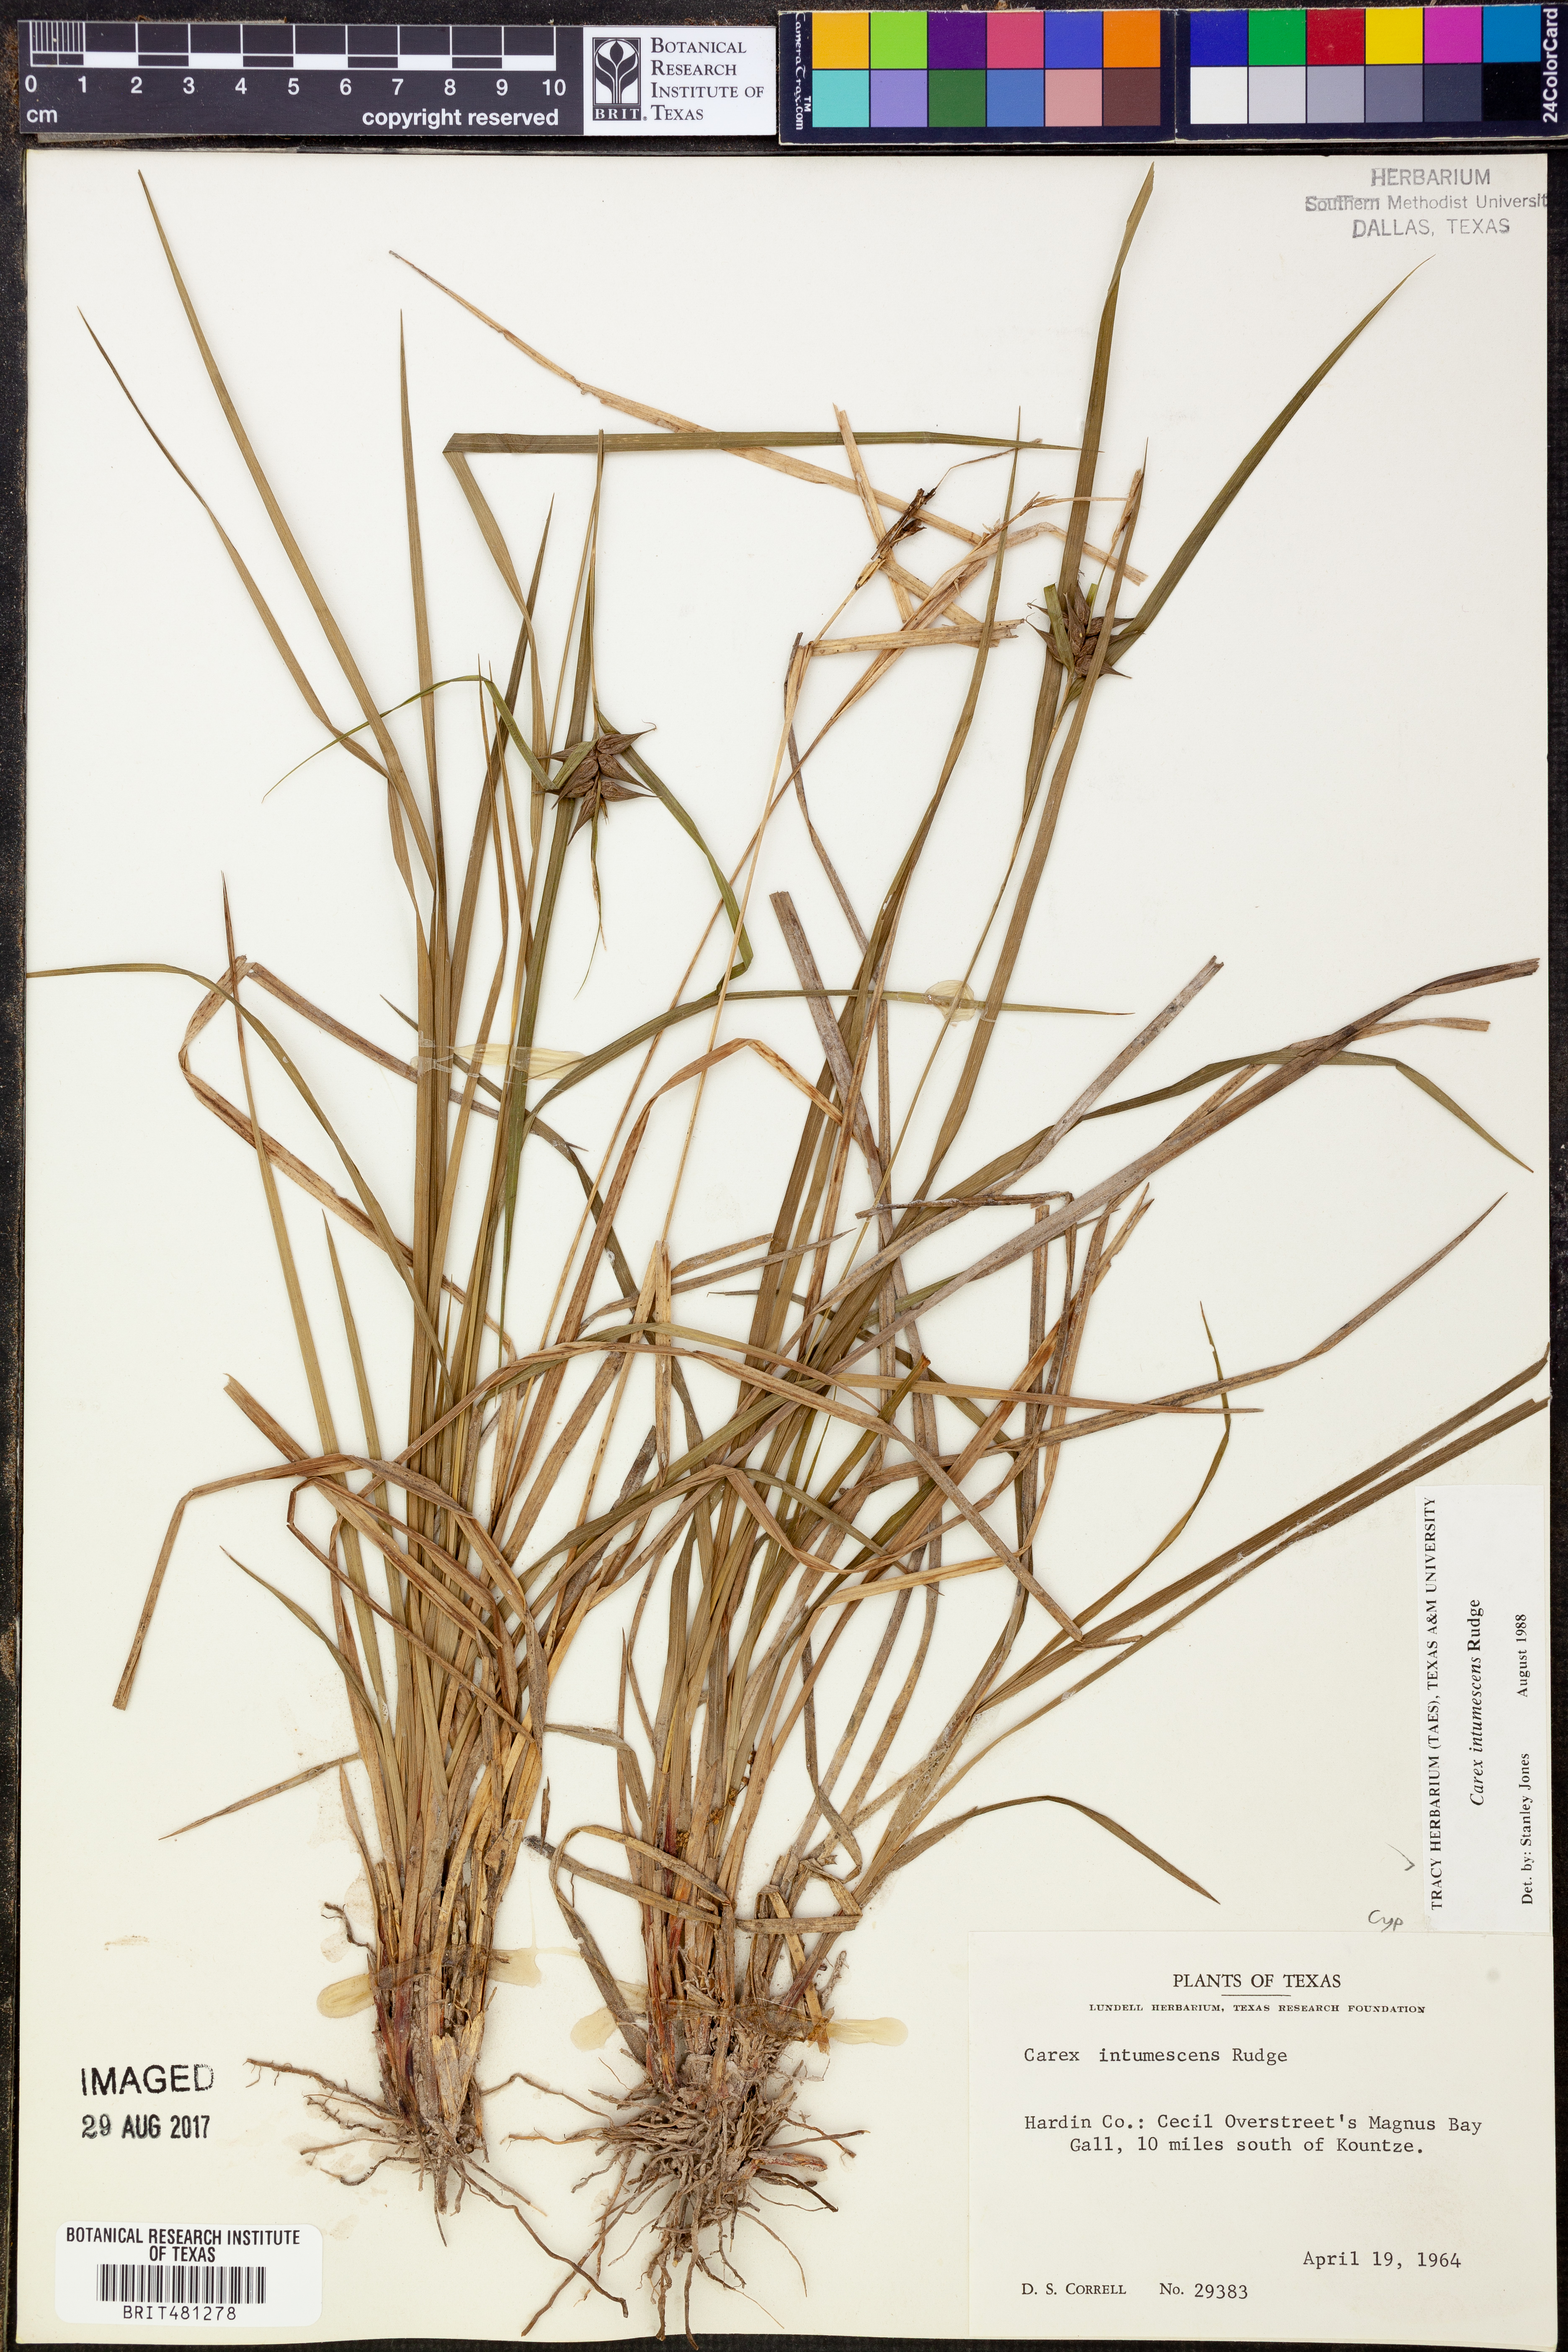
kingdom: Plantae
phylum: Tracheophyta
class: Liliopsida
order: Poales
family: Cyperaceae
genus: Carex
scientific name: Carex intumescens
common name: Greater bladder sedge
